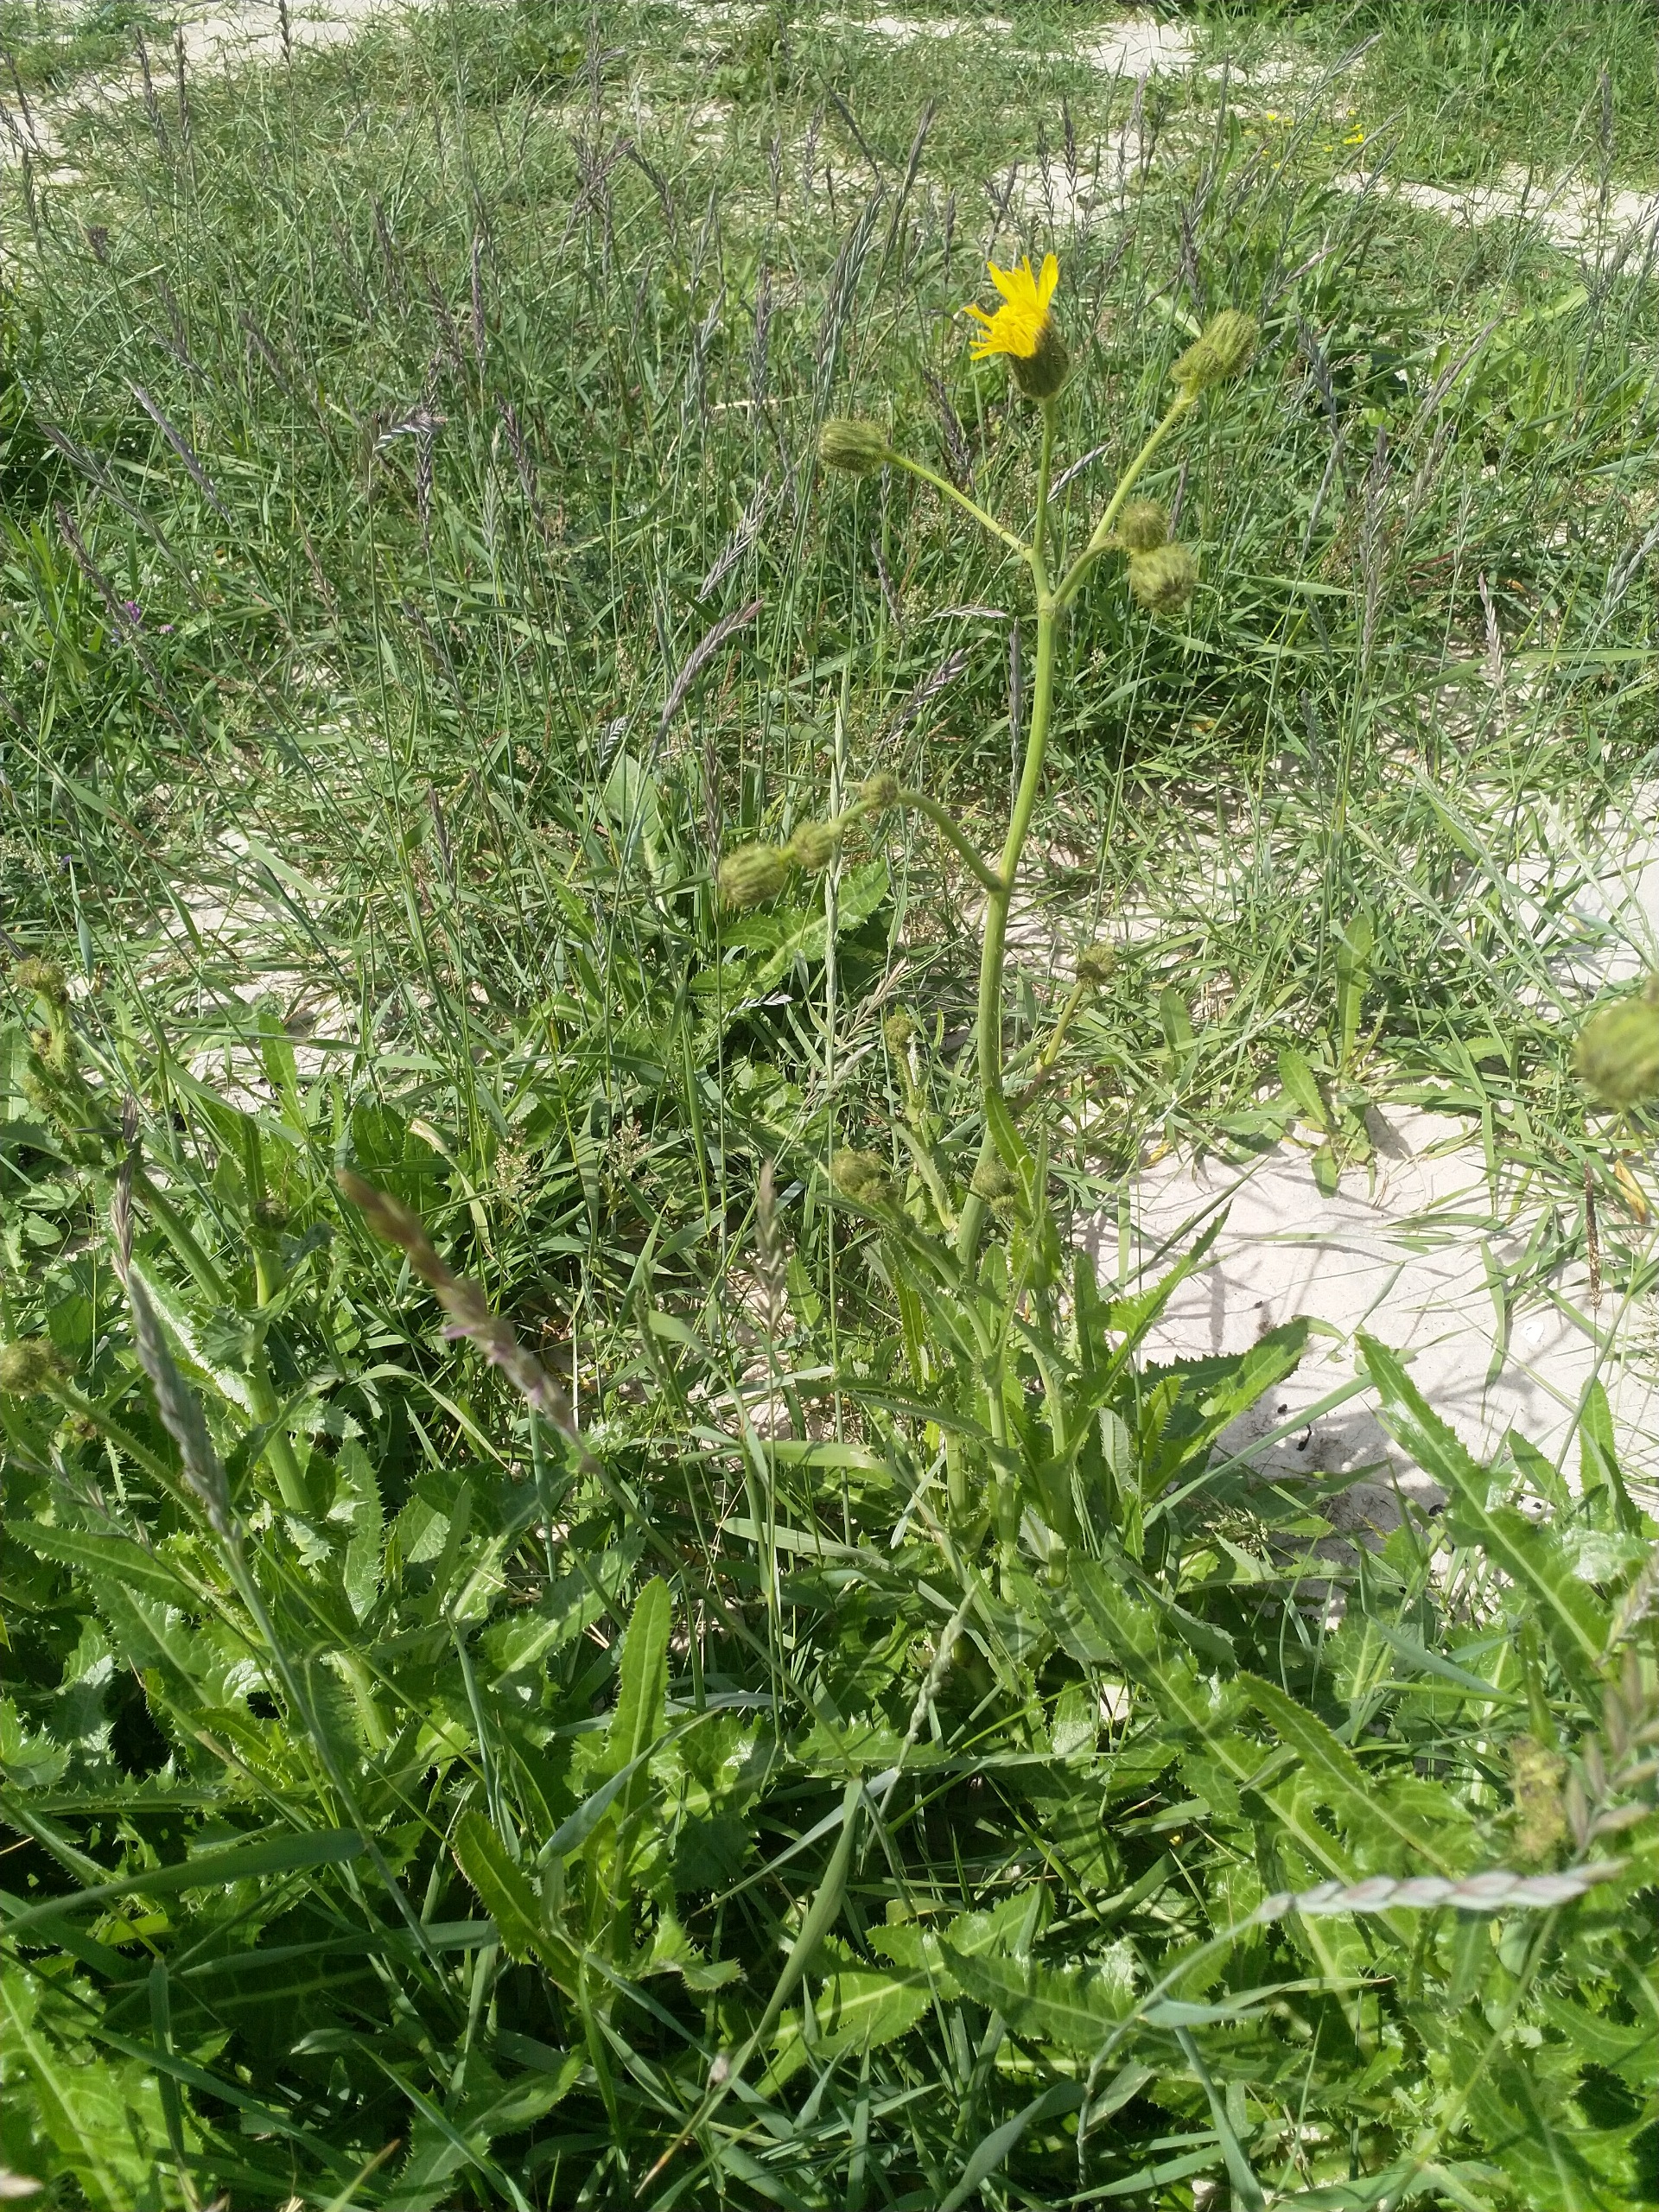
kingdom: Plantae
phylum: Tracheophyta
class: Magnoliopsida
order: Asterales
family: Asteraceae
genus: Sonchus
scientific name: Sonchus arvensis
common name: Ager-svinemælk
